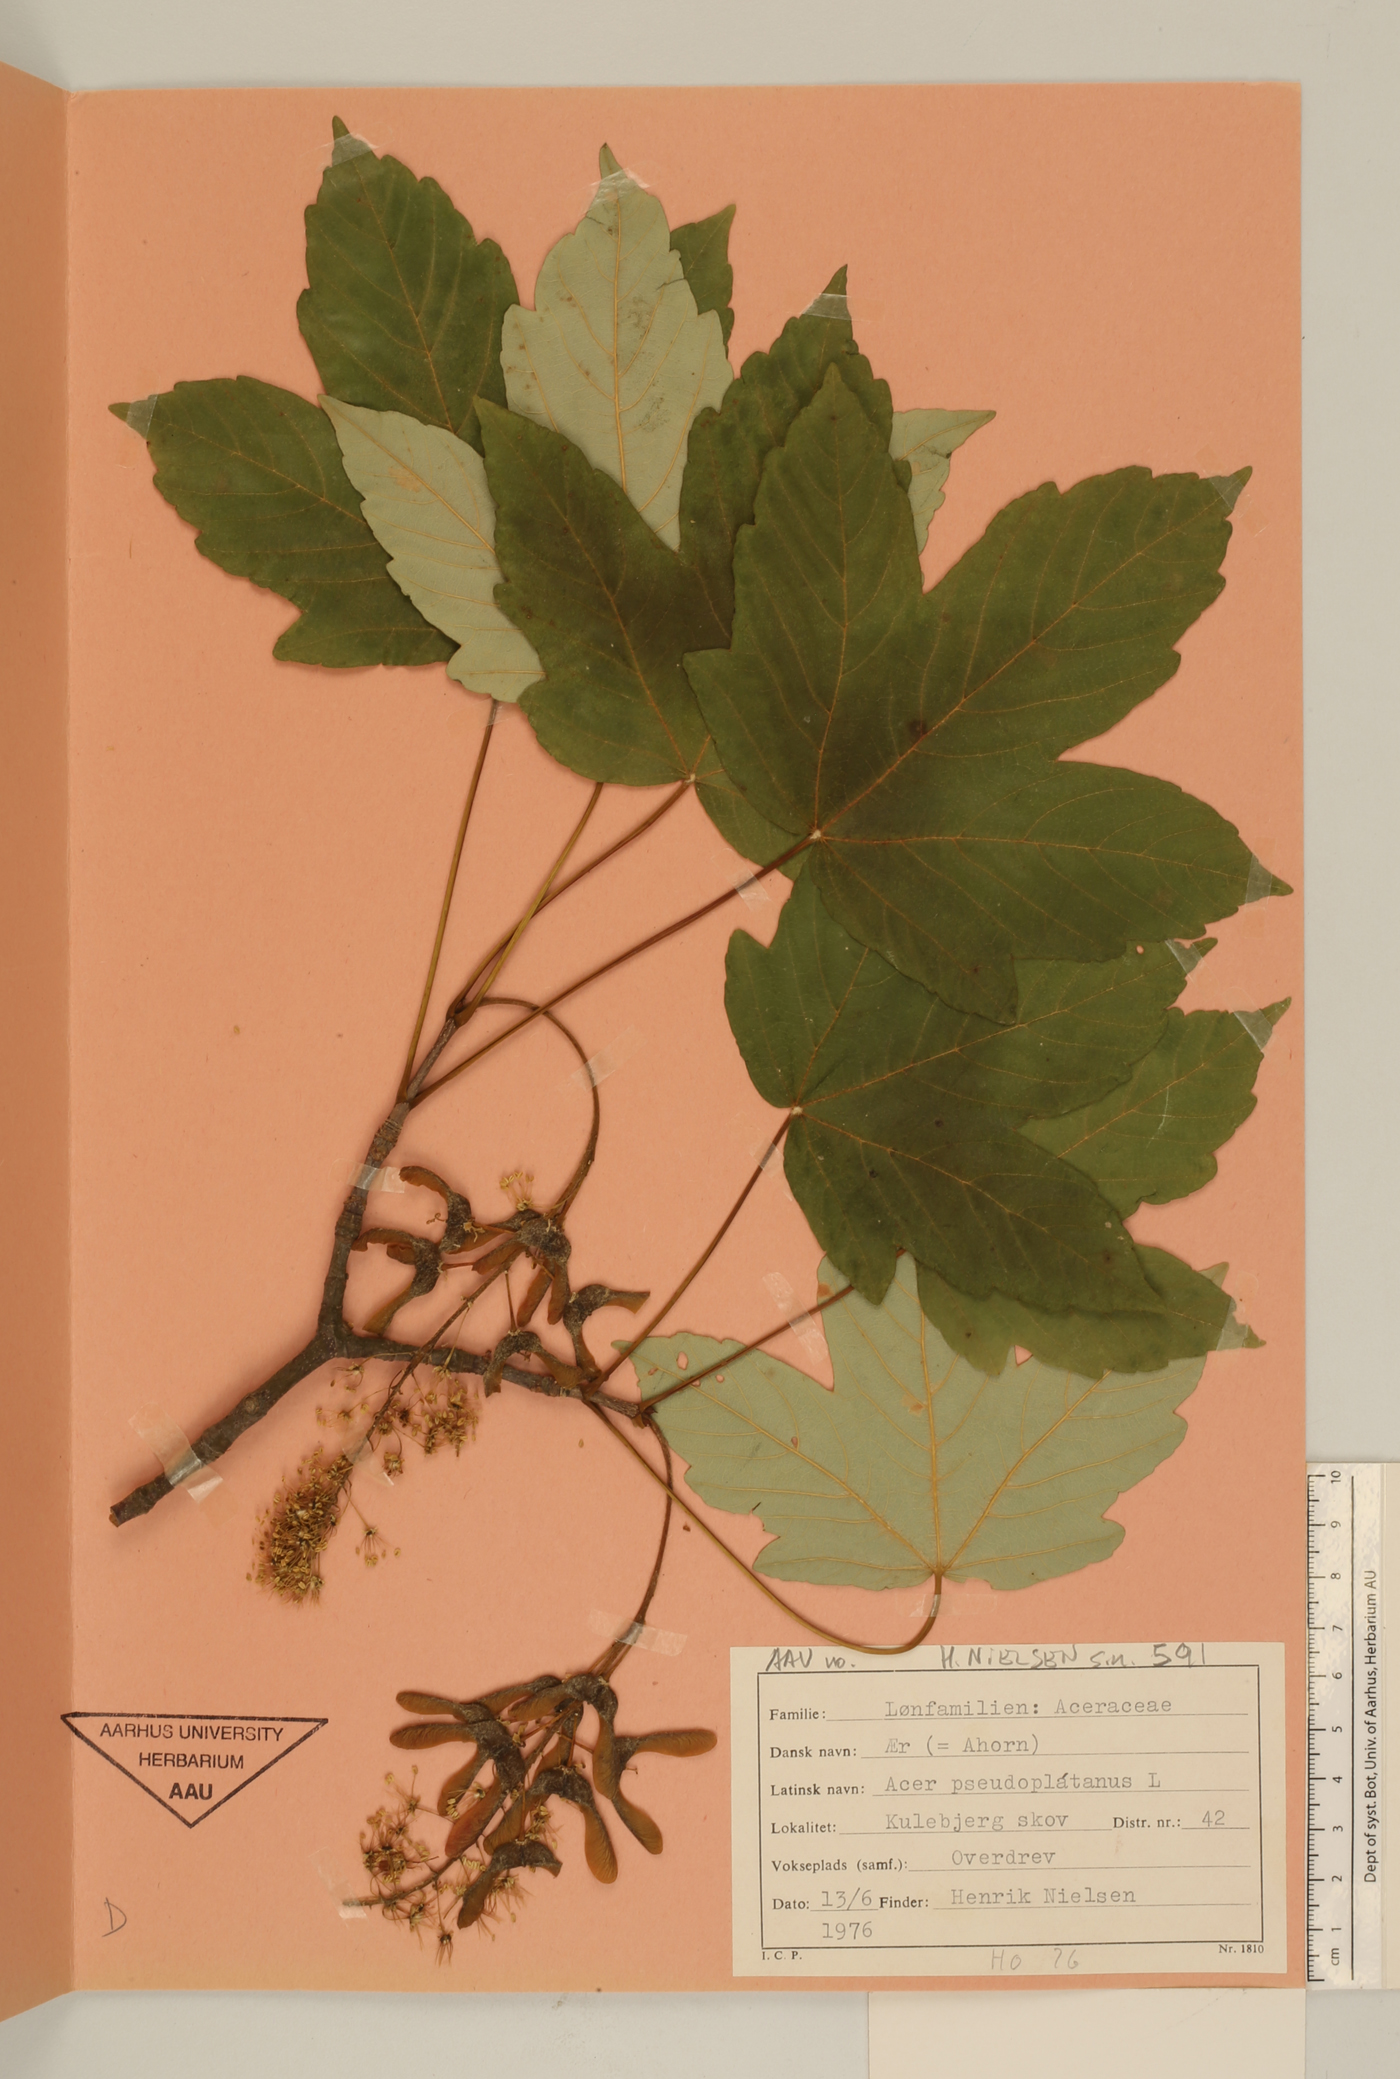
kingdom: Plantae
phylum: Tracheophyta
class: Magnoliopsida
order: Sapindales
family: Sapindaceae
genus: Acer
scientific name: Acer pseudoplatanus
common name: Sycamore
